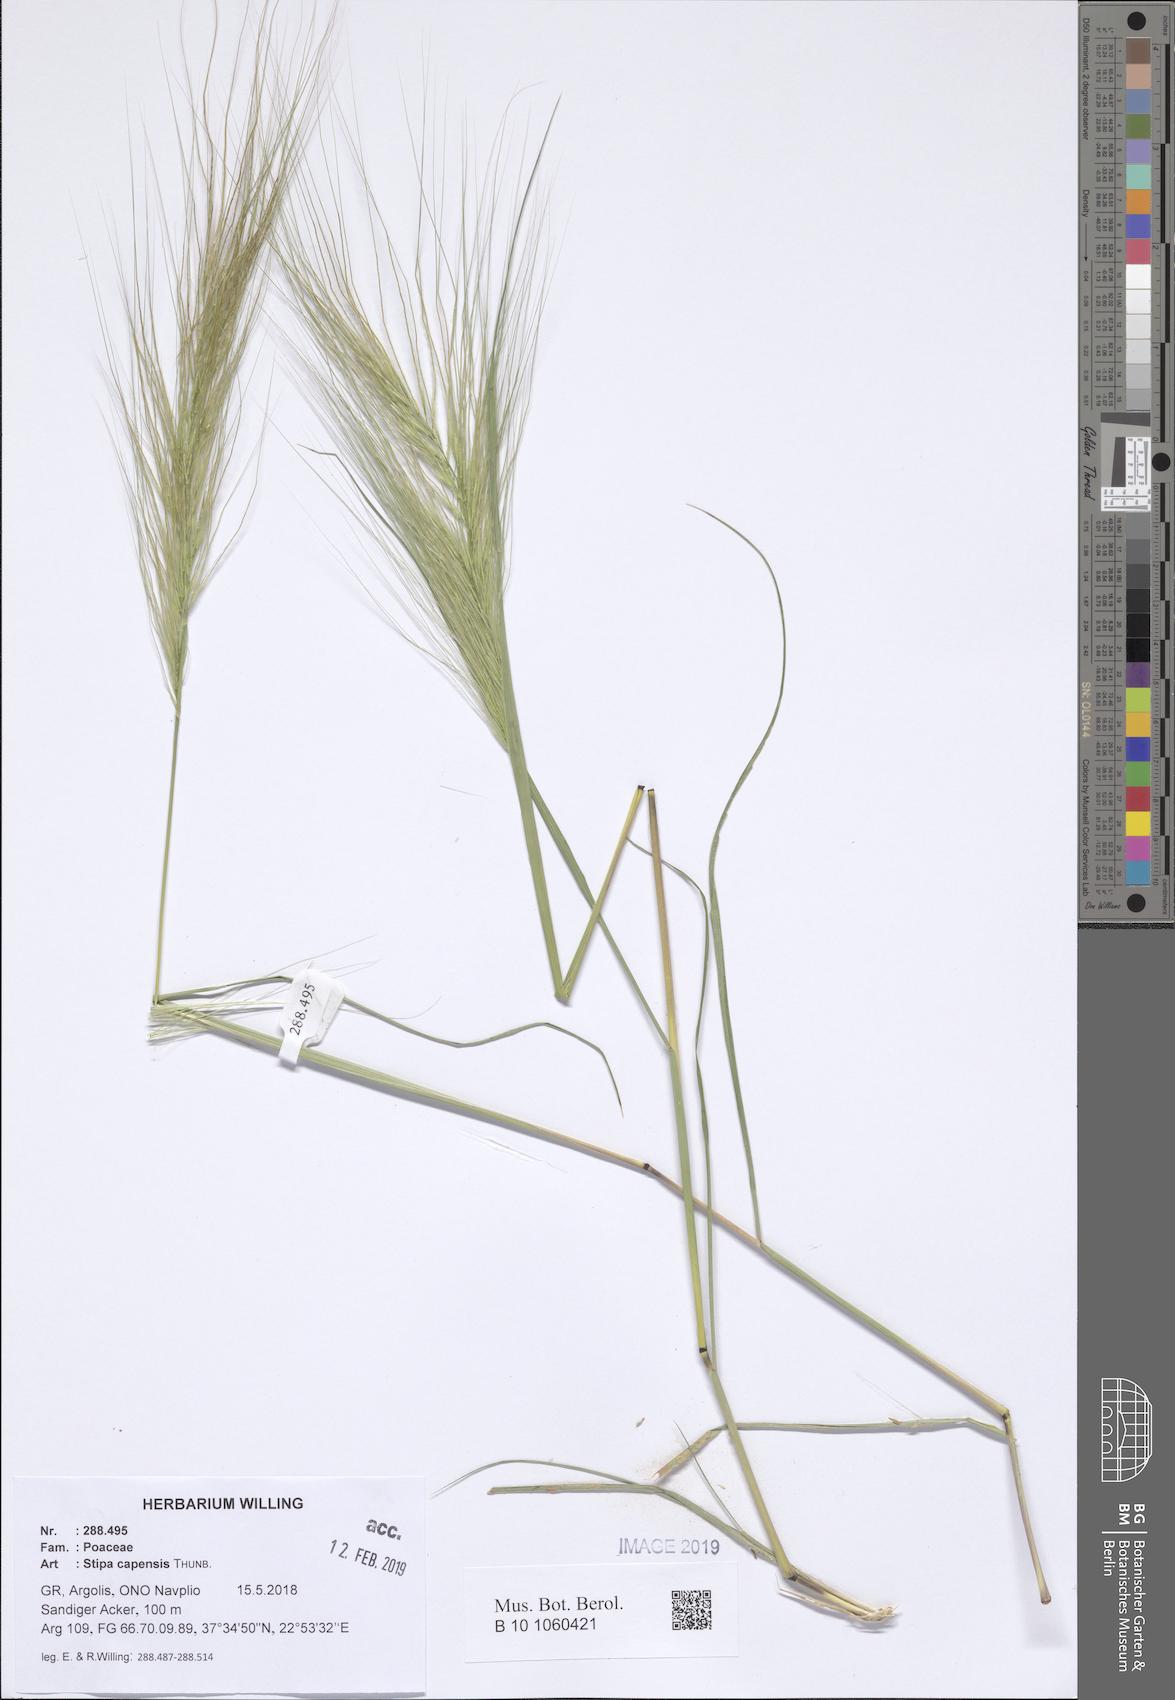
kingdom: Plantae
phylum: Tracheophyta
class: Liliopsida
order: Poales
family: Poaceae
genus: Stipellula
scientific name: Stipellula capensis
